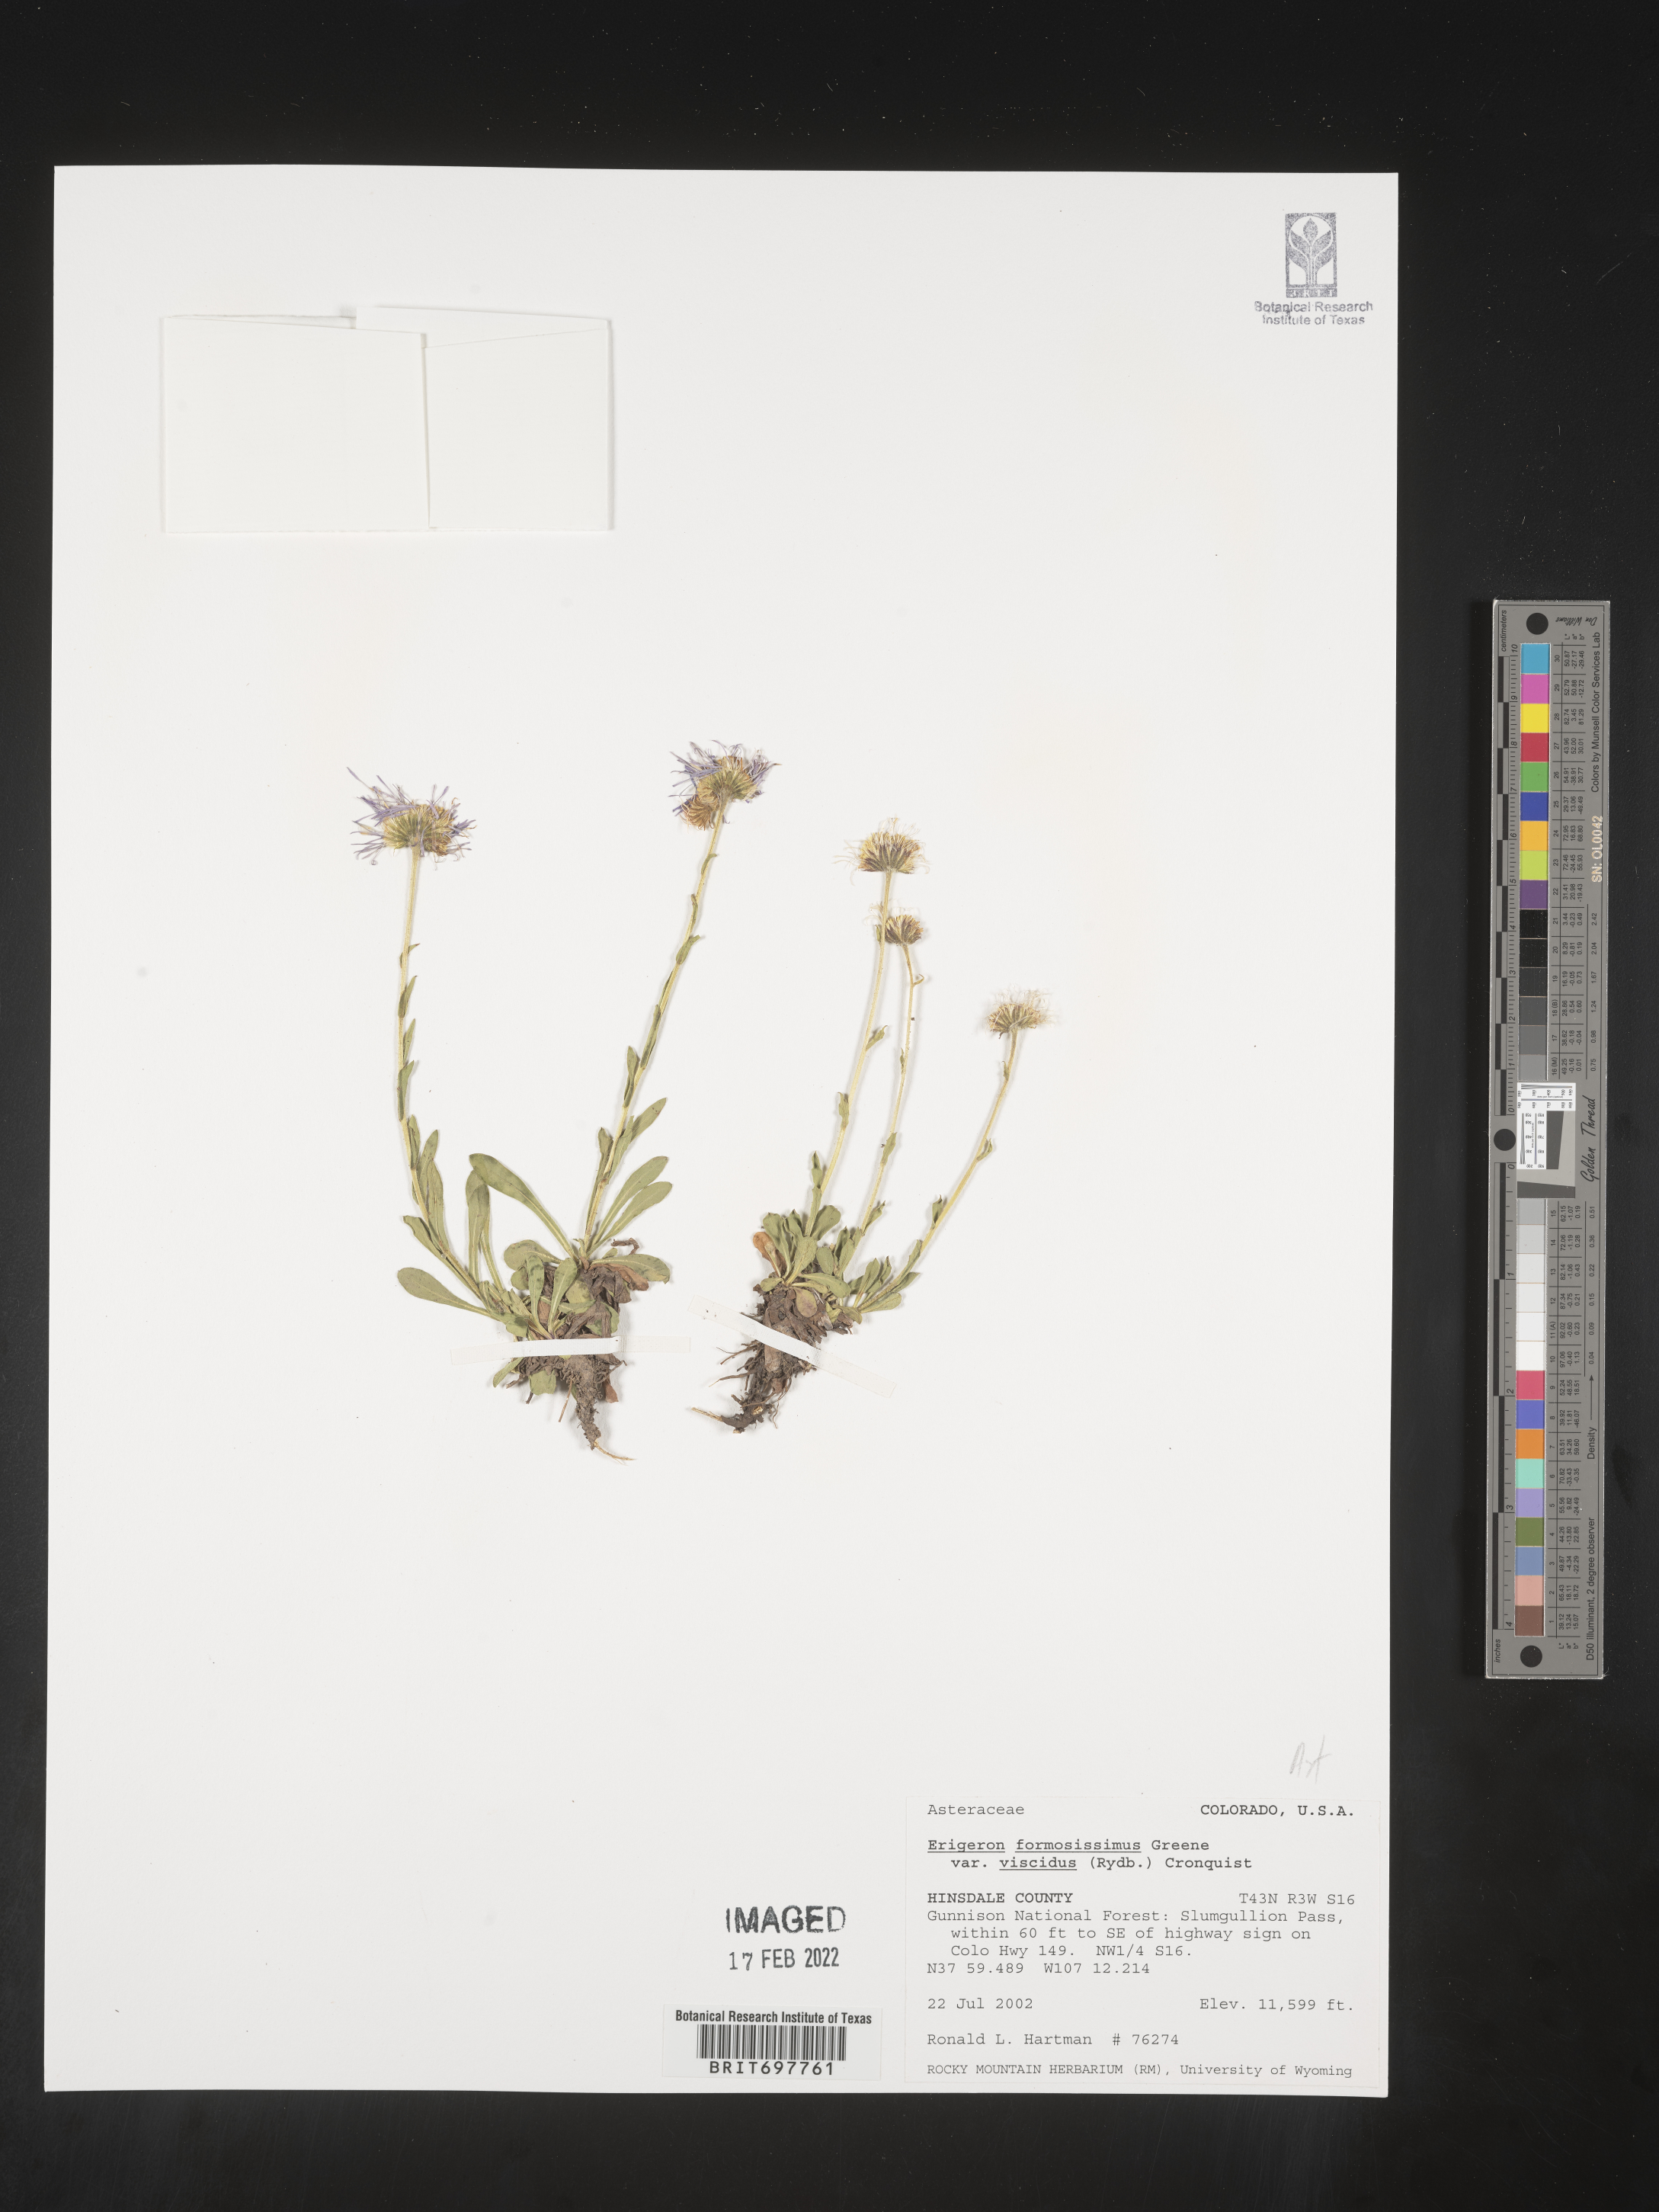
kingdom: Plantae
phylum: Tracheophyta
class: Magnoliopsida
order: Asterales
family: Asteraceae
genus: Erigeron
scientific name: Erigeron formosissimus
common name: Beautiful fleabane
